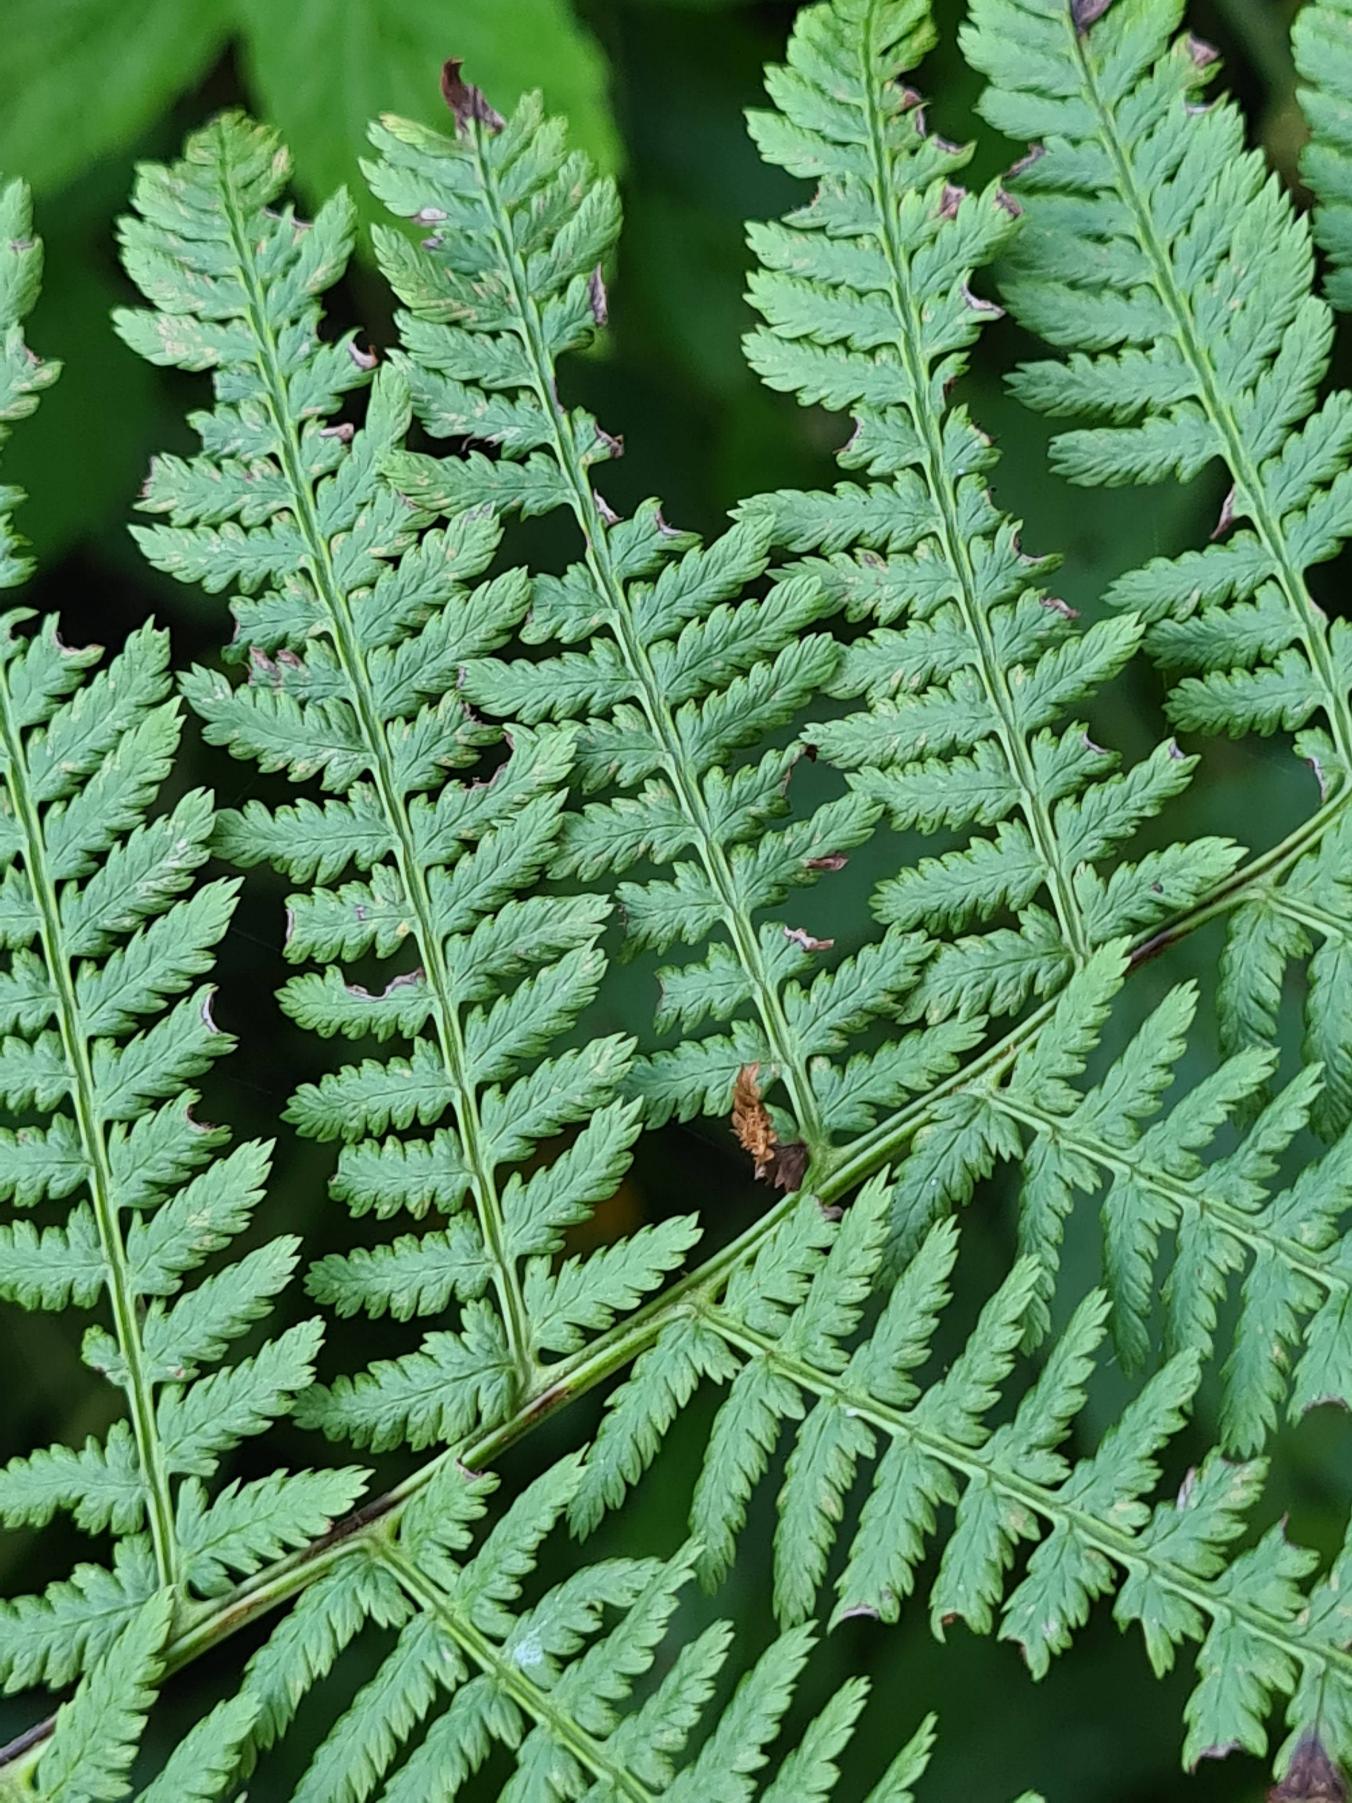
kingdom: Plantae
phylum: Tracheophyta
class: Polypodiopsida
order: Polypodiales
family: Athyriaceae
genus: Athyrium
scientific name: Athyrium filix-femina
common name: Fjerbregne
